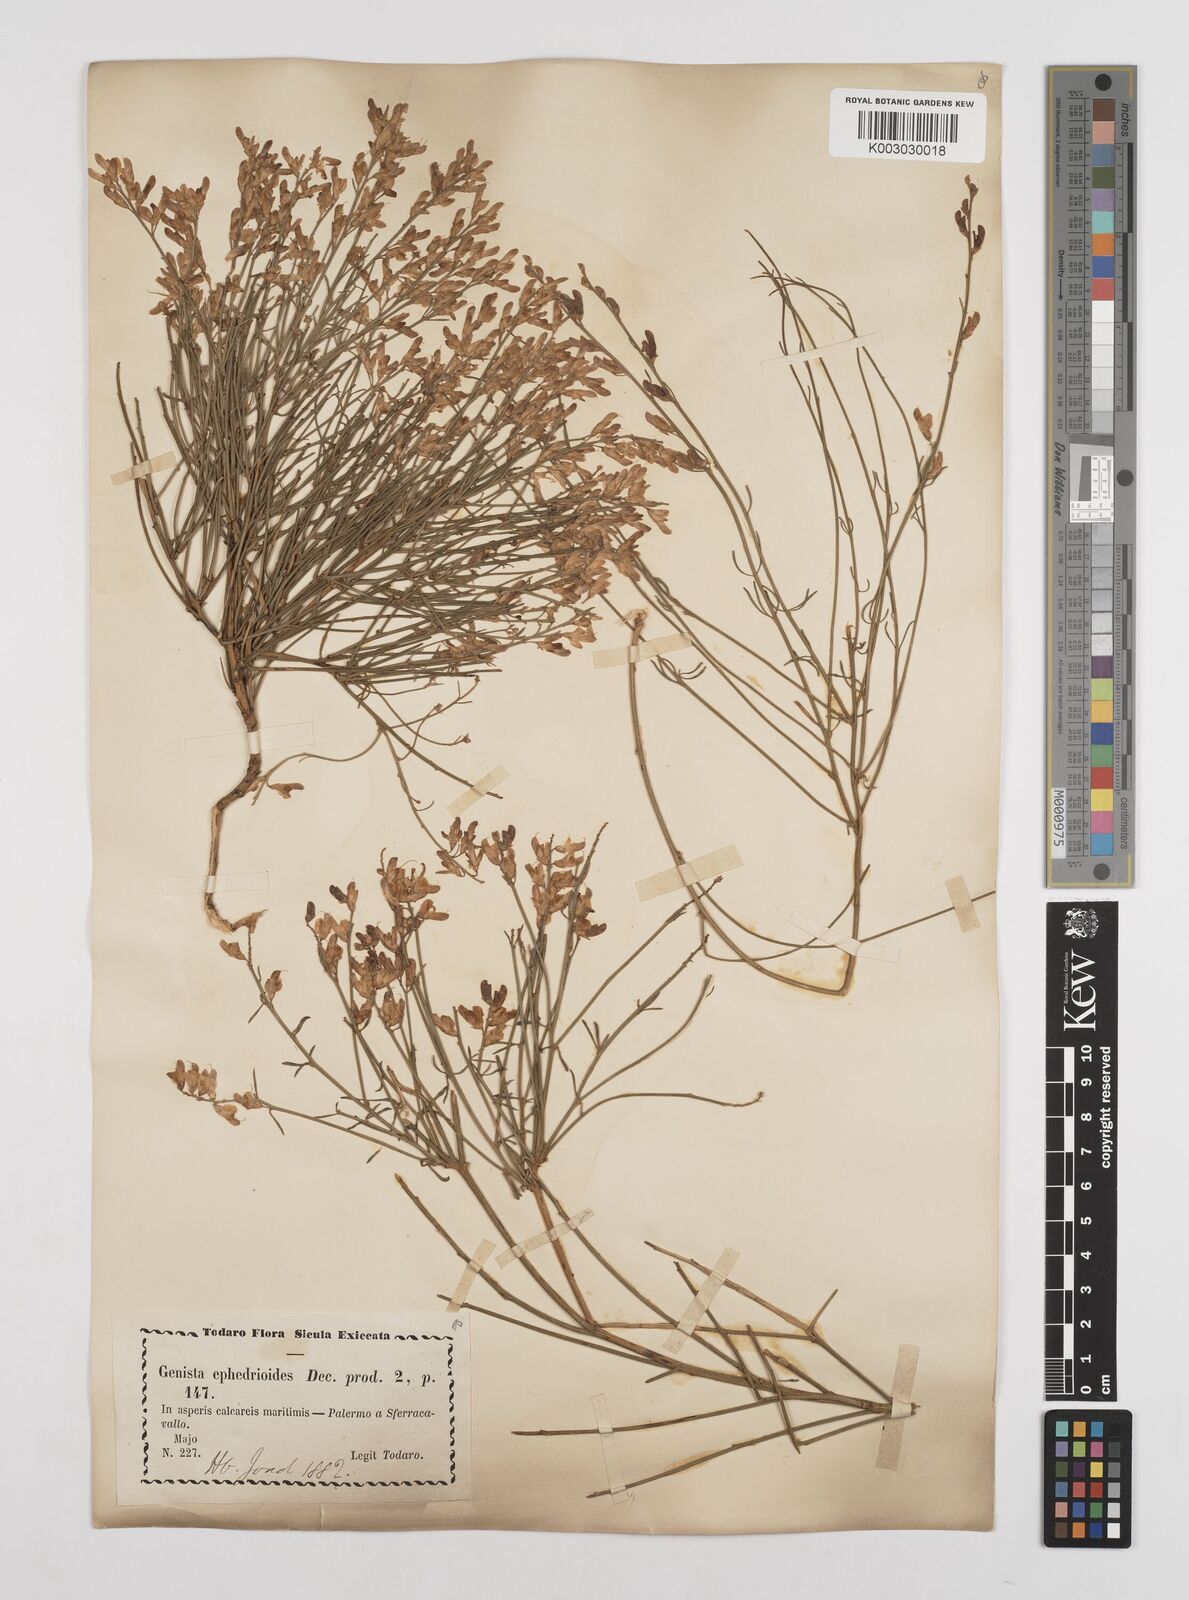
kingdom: Plantae
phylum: Tracheophyta
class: Magnoliopsida
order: Fabales
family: Fabaceae
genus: Genista
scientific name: Genista ephedroides
